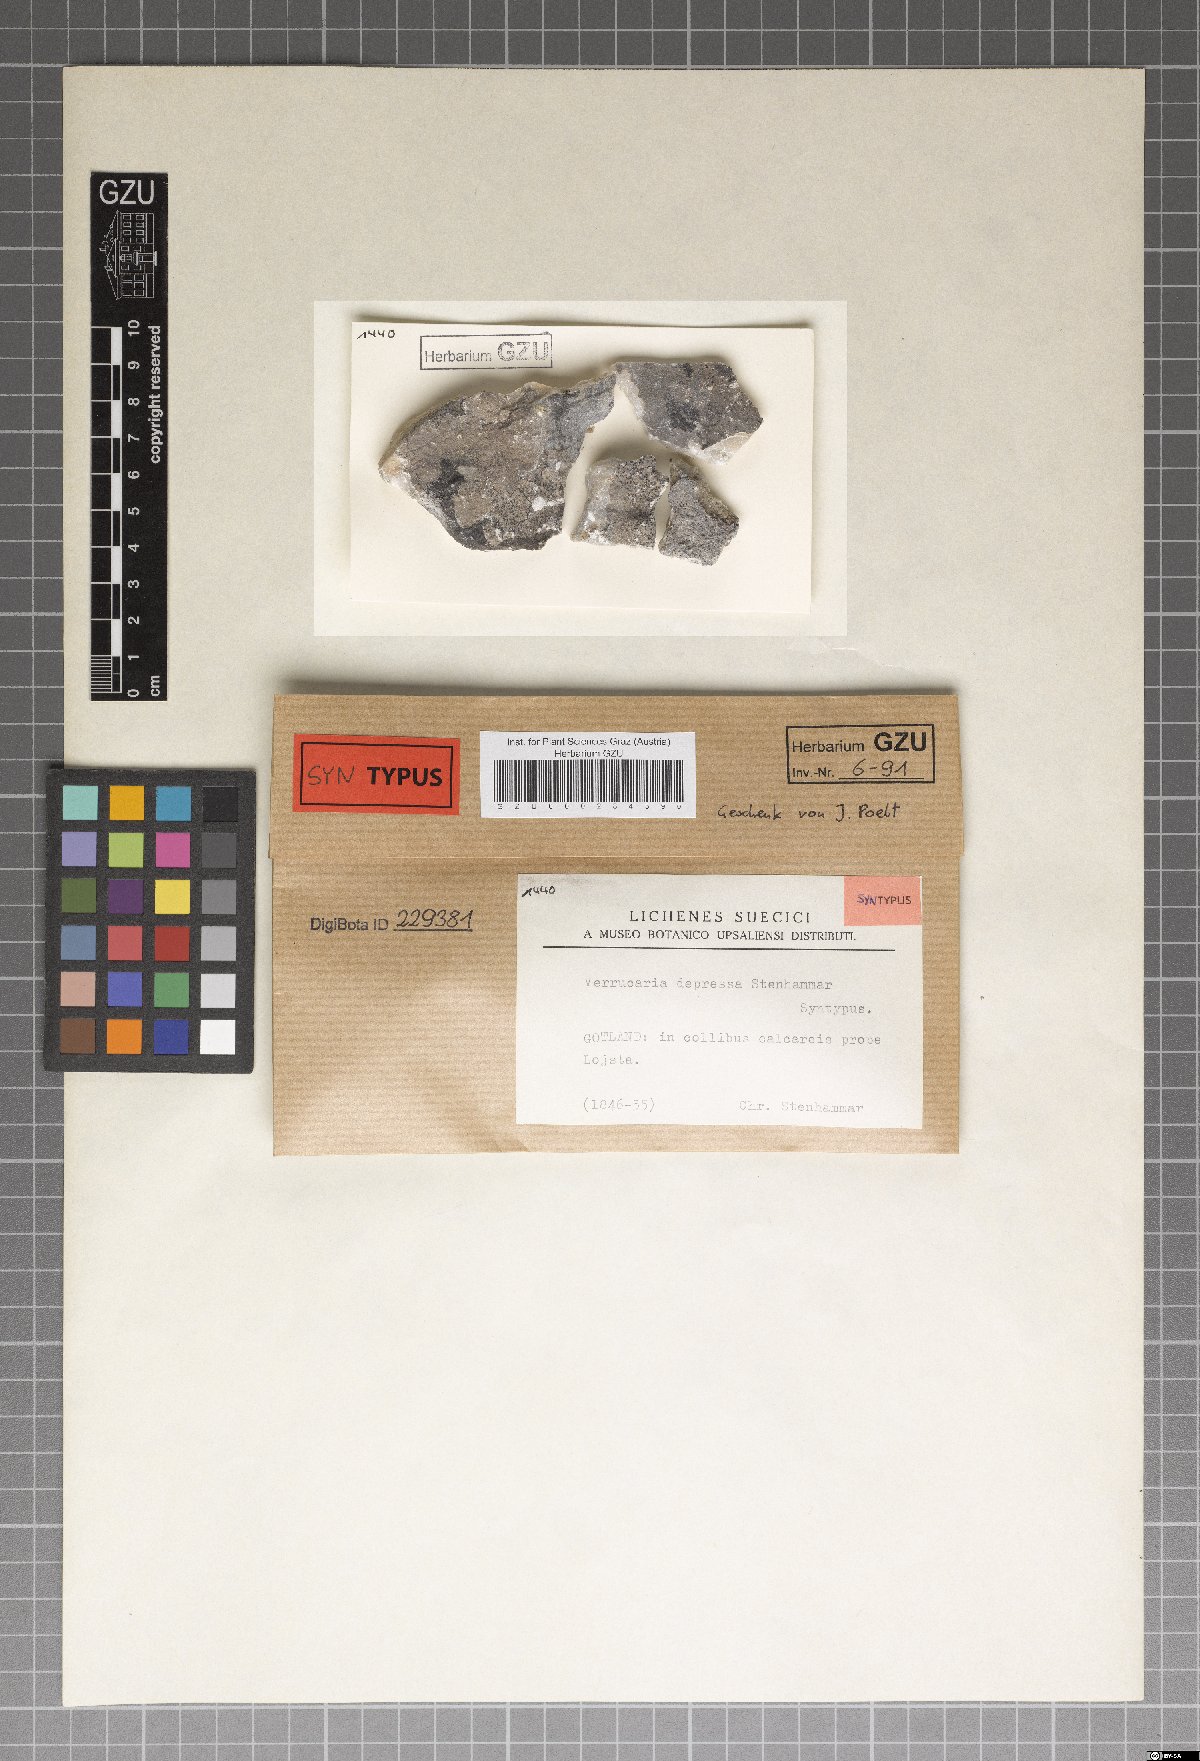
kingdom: Fungi
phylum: Ascomycota
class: Eurotiomycetes
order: Verrucariales
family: Verrucariaceae
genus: Verrucaria
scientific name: Verrucaria obscura
